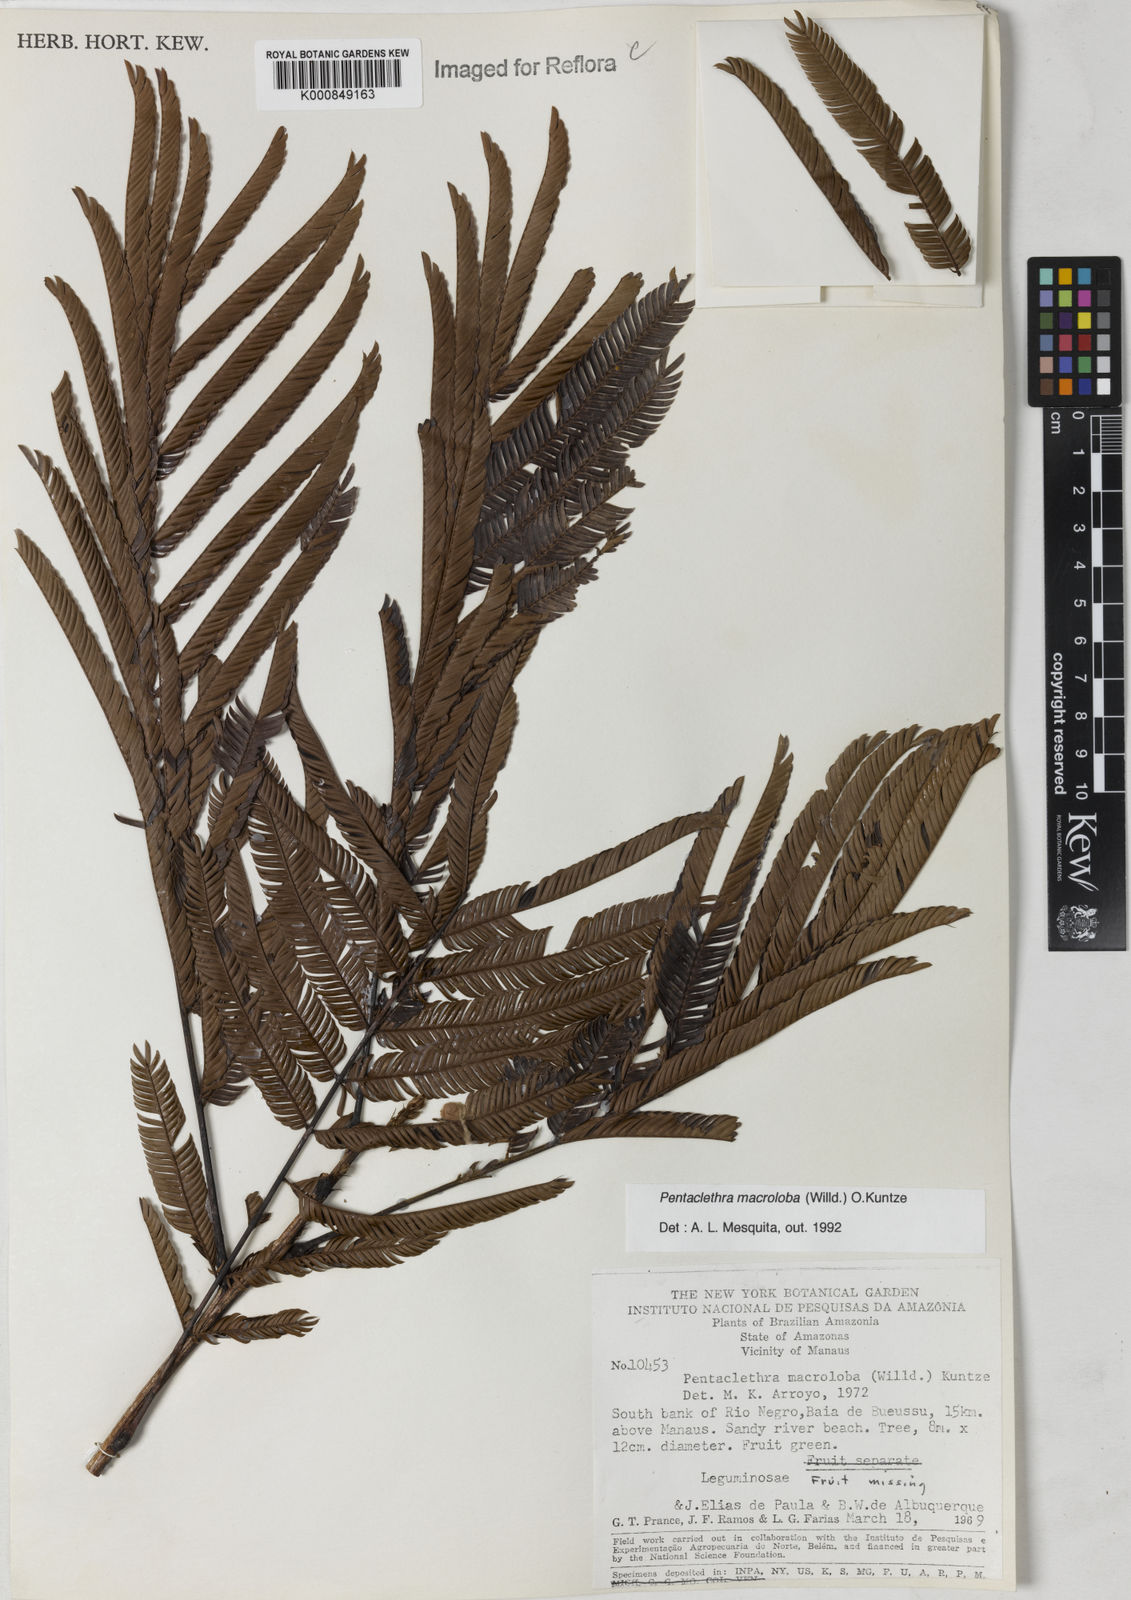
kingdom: Plantae
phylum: Tracheophyta
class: Magnoliopsida
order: Fabales
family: Fabaceae
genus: Pentaclethra
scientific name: Pentaclethra macroloba
